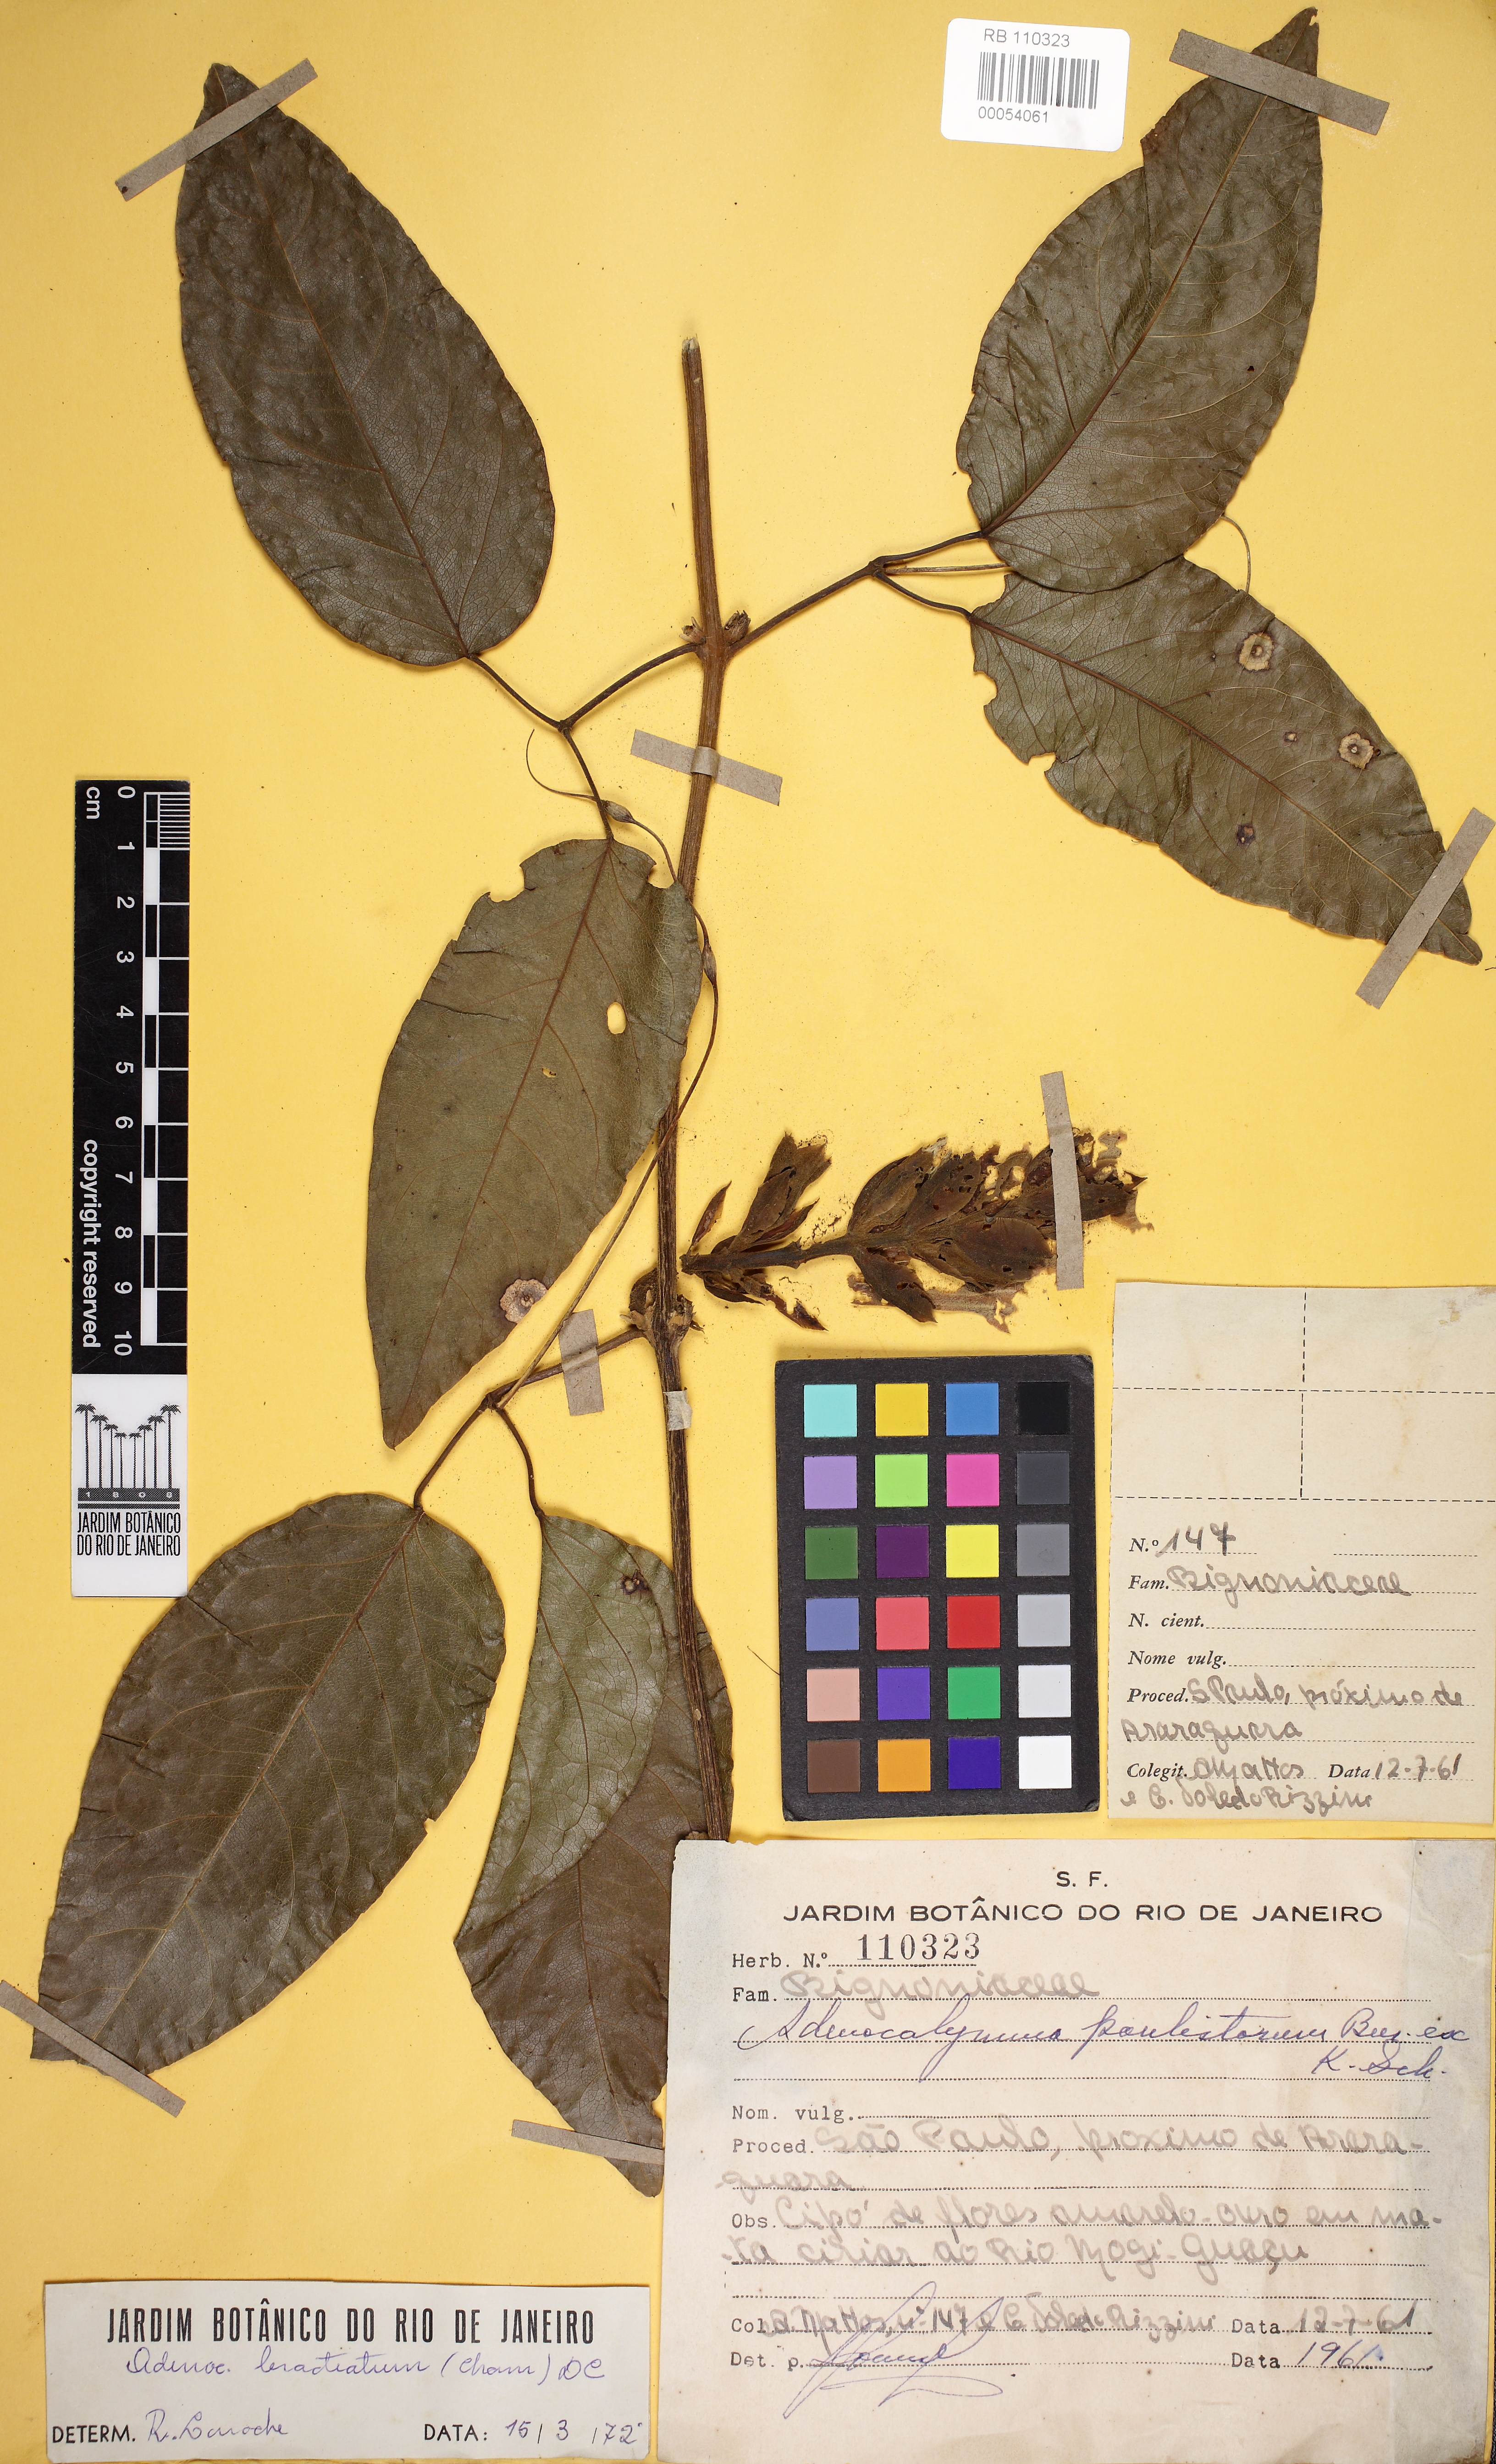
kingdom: Plantae
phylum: Tracheophyta
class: Magnoliopsida
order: Lamiales
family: Bignoniaceae
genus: Adenocalymma
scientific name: Adenocalymma bracteatum
